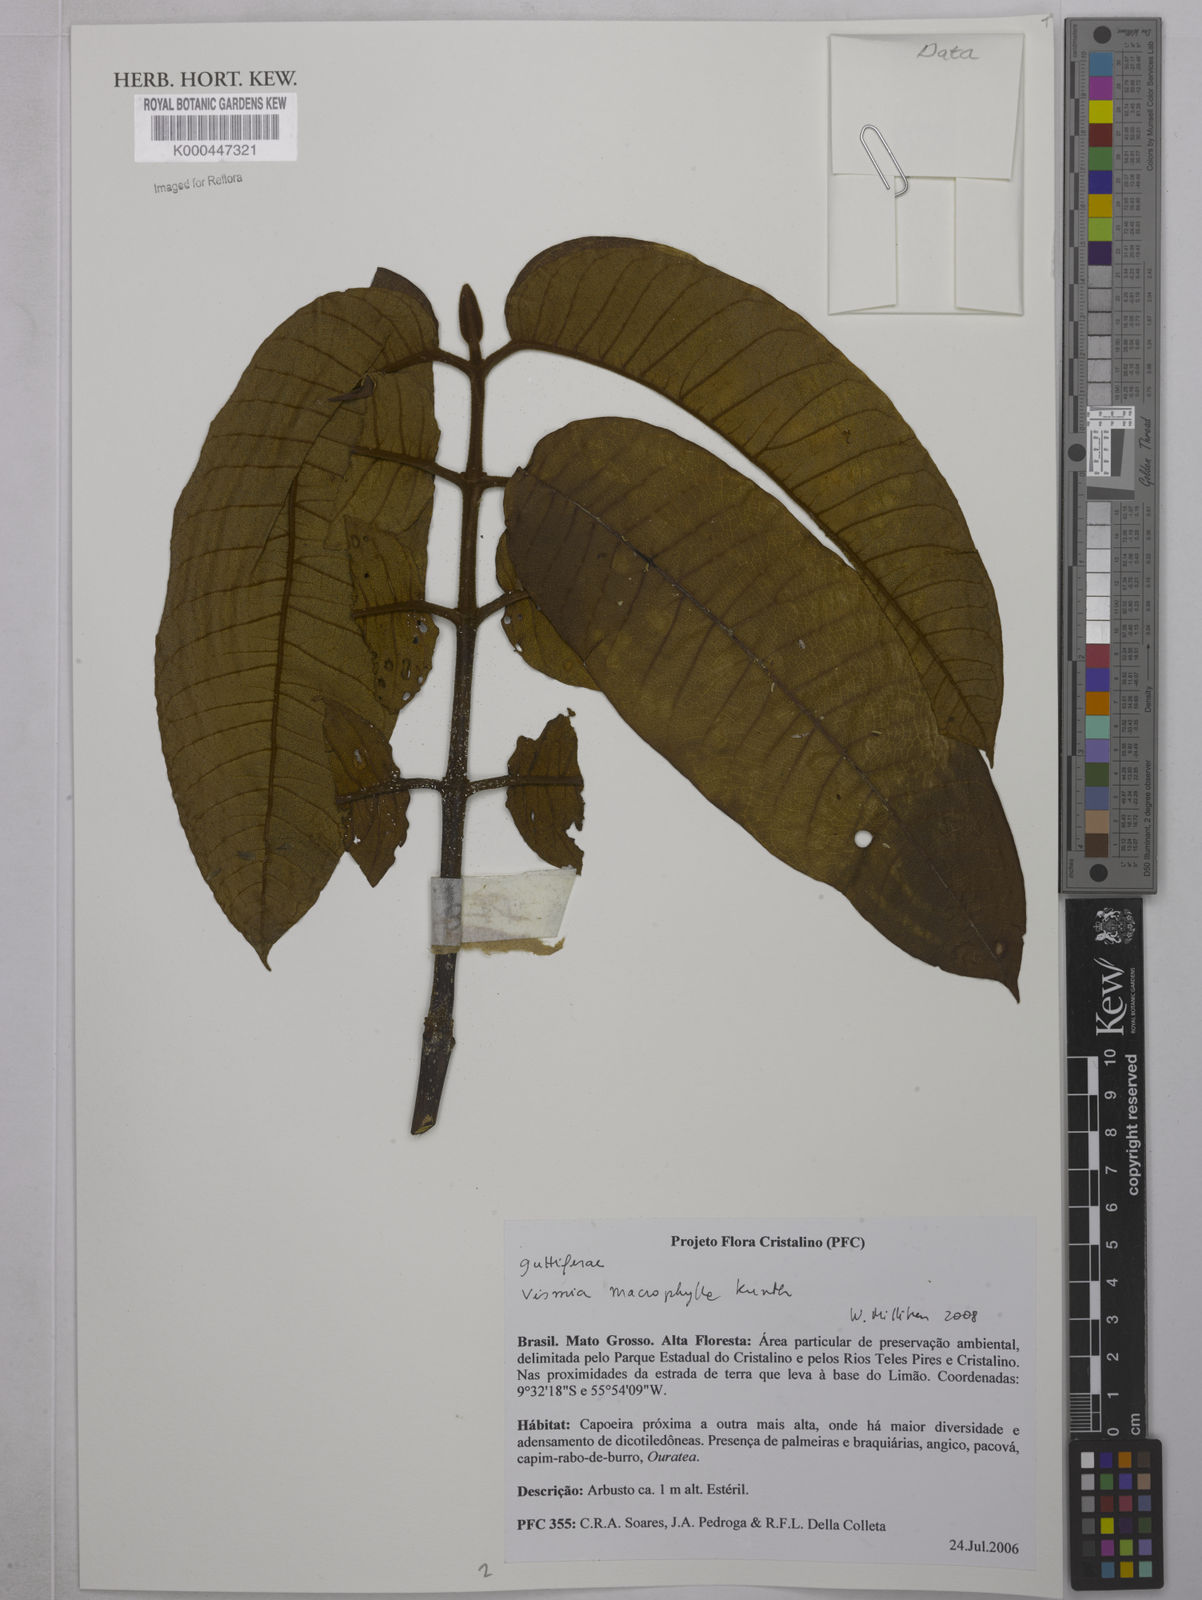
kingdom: Plantae
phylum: Tracheophyta
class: Magnoliopsida
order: Malpighiales
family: Hypericaceae
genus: Vismia
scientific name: Vismia macrophylla
